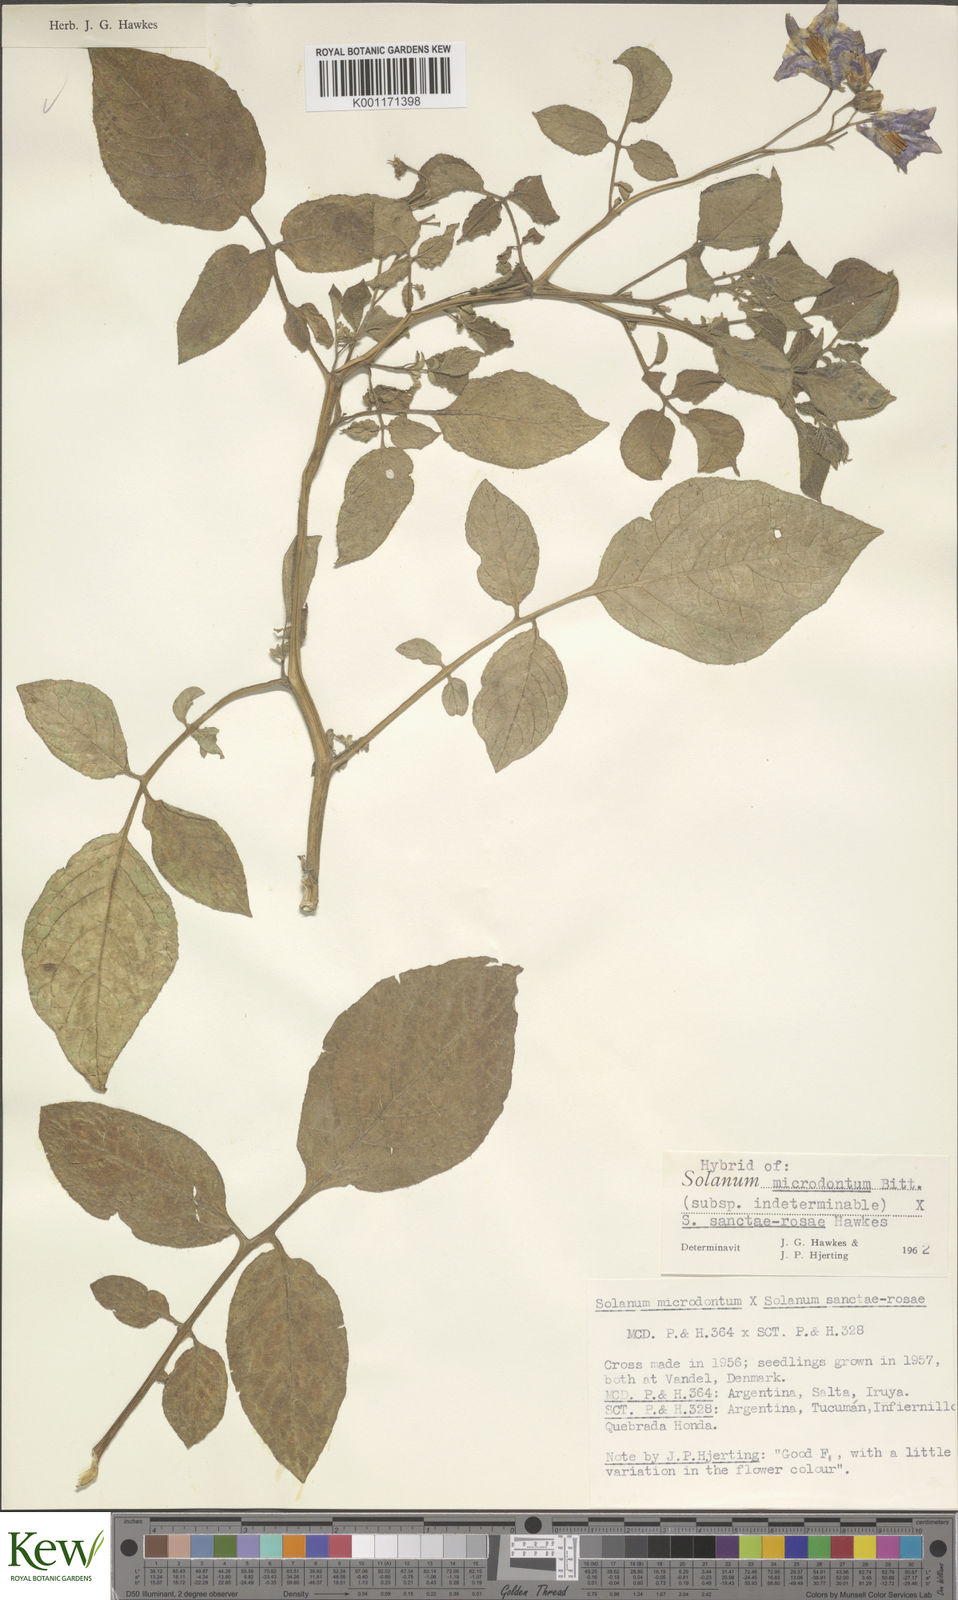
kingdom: Plantae
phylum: Tracheophyta
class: Magnoliopsida
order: Solanales
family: Solanaceae
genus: Solanum
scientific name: Solanum boliviense
